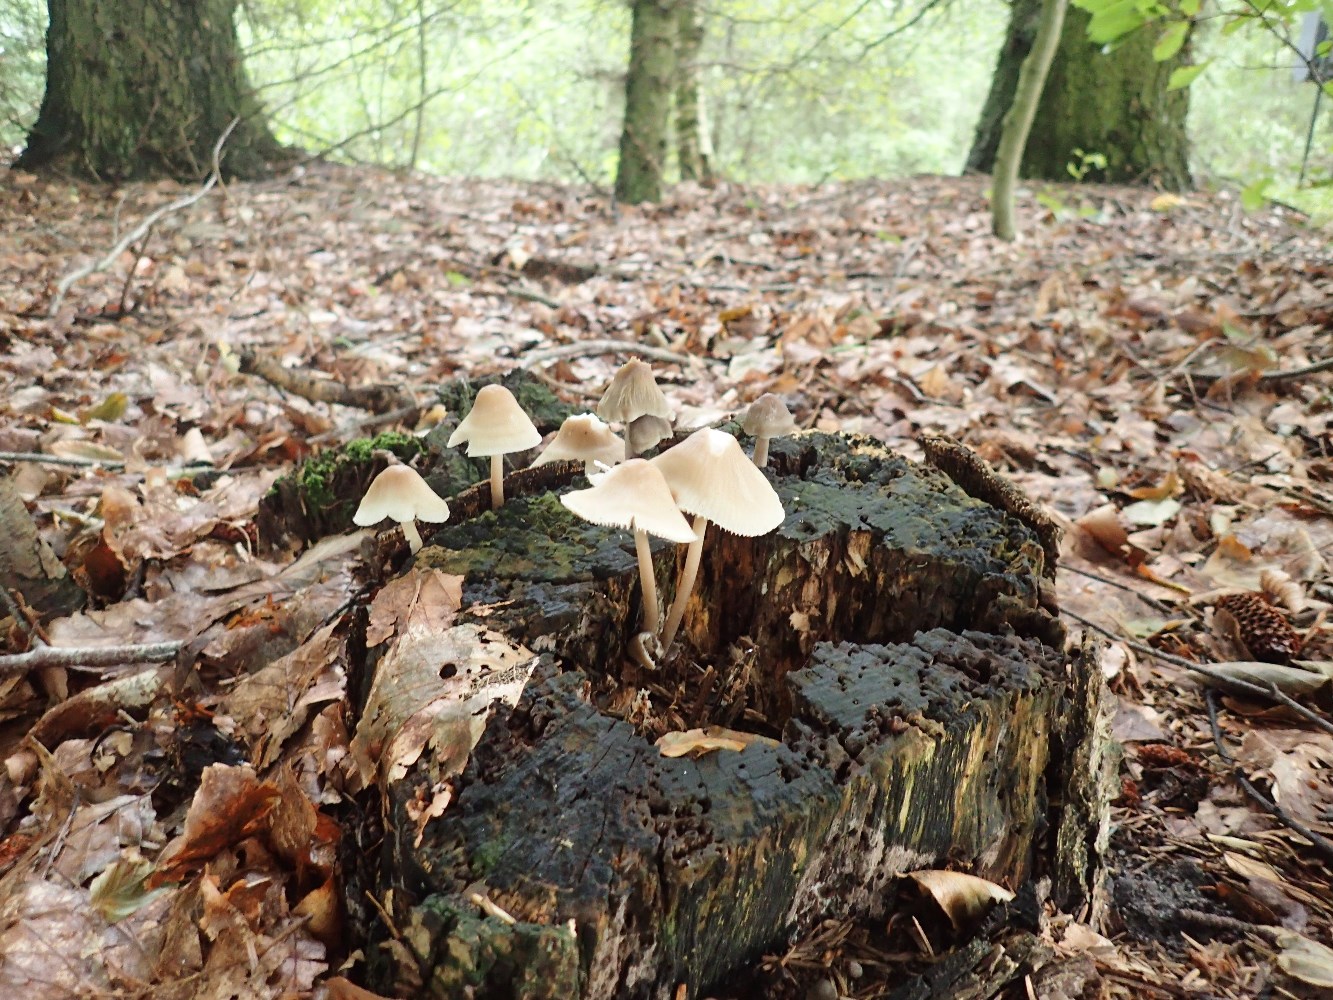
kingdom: Fungi
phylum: Basidiomycota
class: Agaricomycetes
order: Agaricales
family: Mycenaceae
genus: Mycena
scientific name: Mycena galericulata
